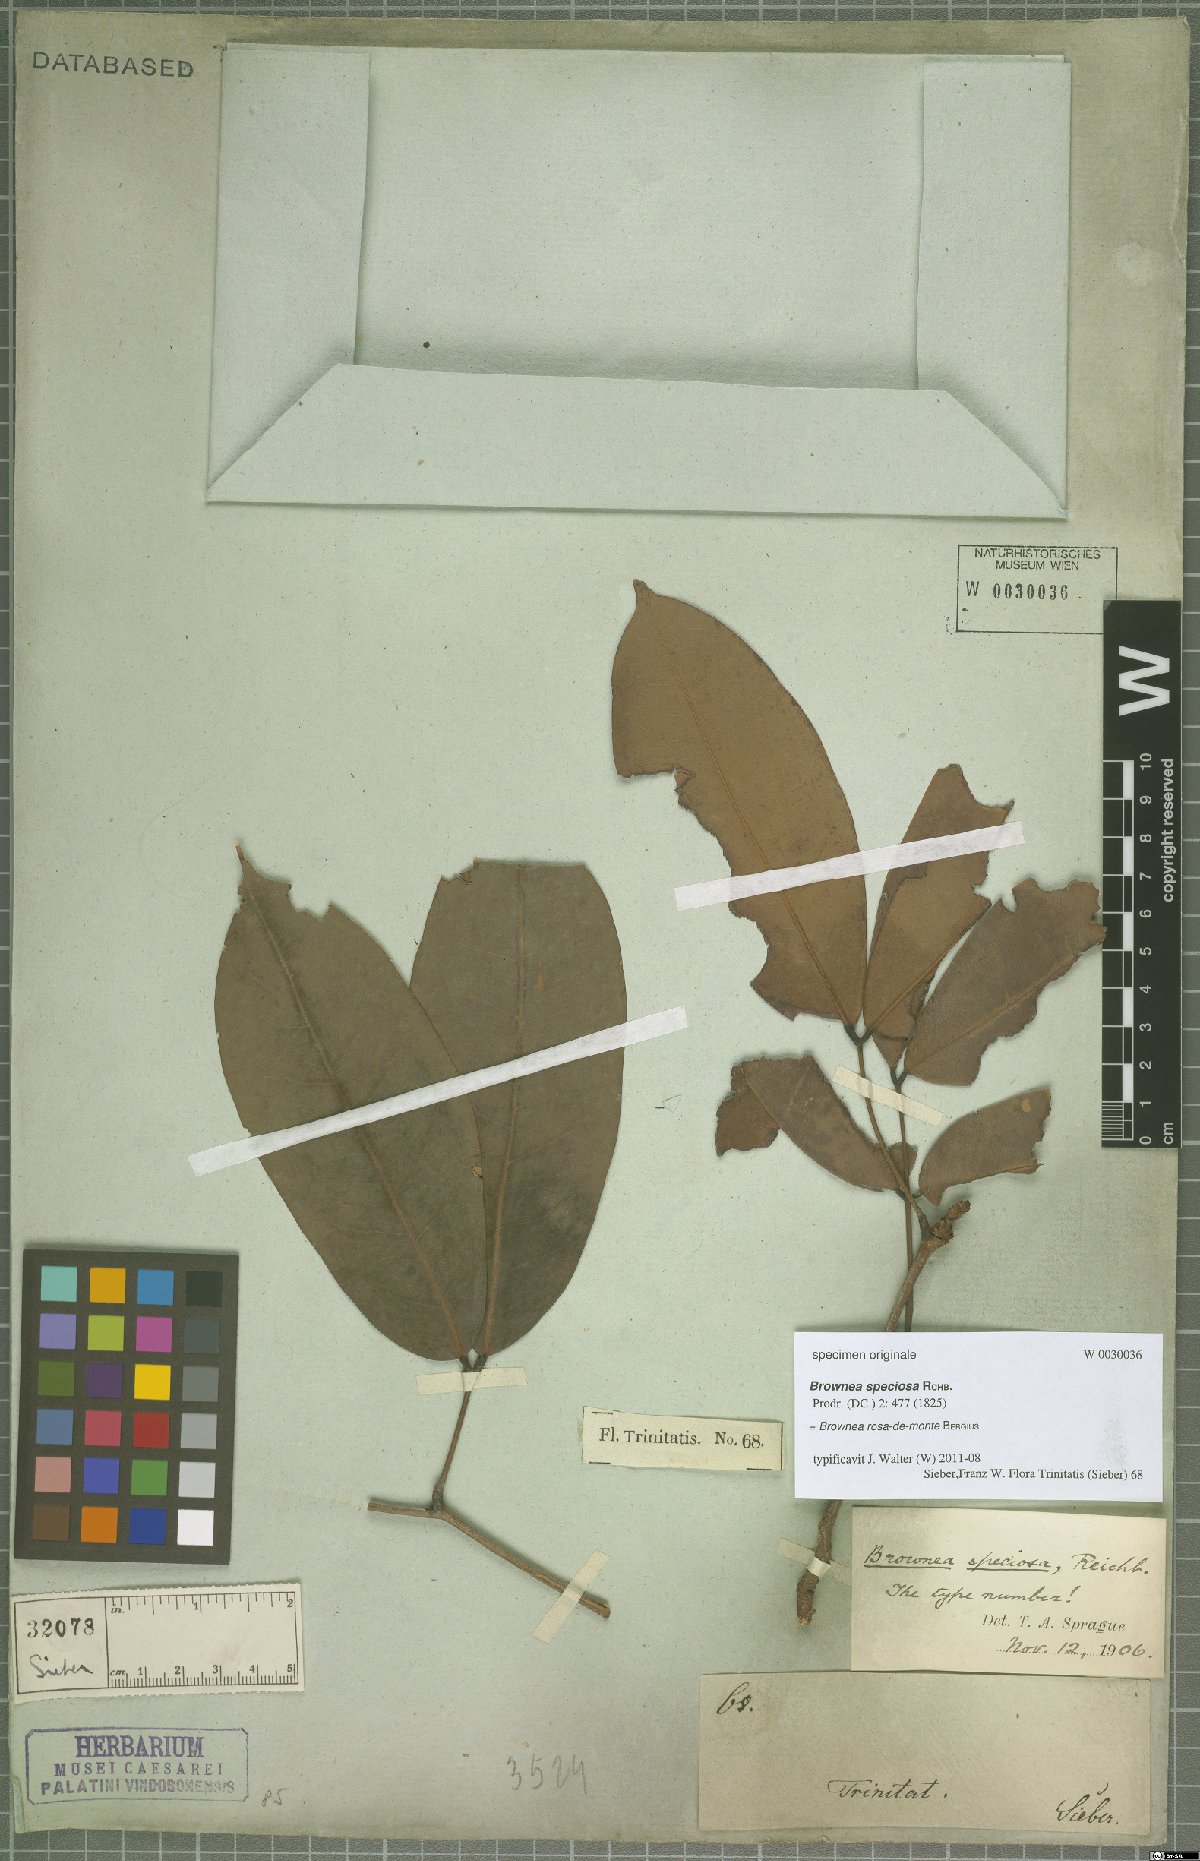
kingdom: Plantae
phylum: Tracheophyta
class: Magnoliopsida
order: Fabales
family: Fabaceae
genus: Brownea
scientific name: Brownea rosa-de-monte
